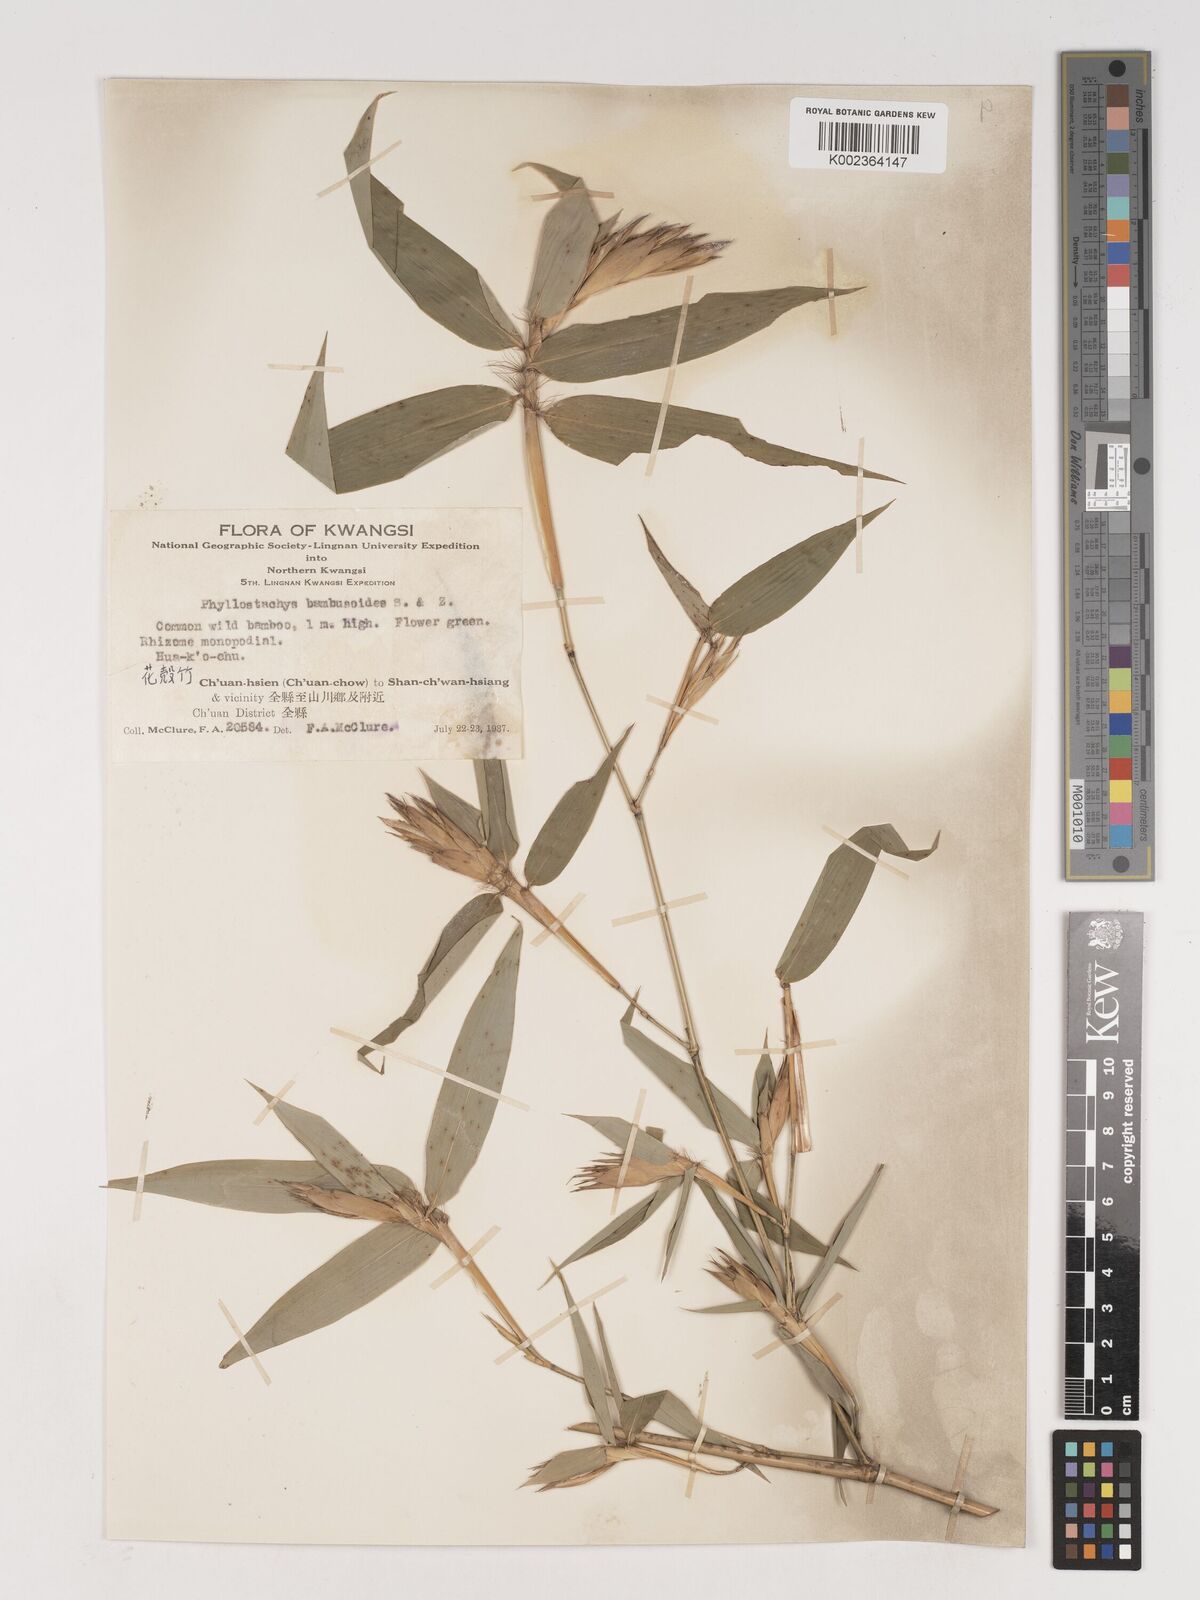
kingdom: Plantae
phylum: Tracheophyta
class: Liliopsida
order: Poales
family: Poaceae
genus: Phyllostachys
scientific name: Phyllostachys reticulata
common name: Bamboo
